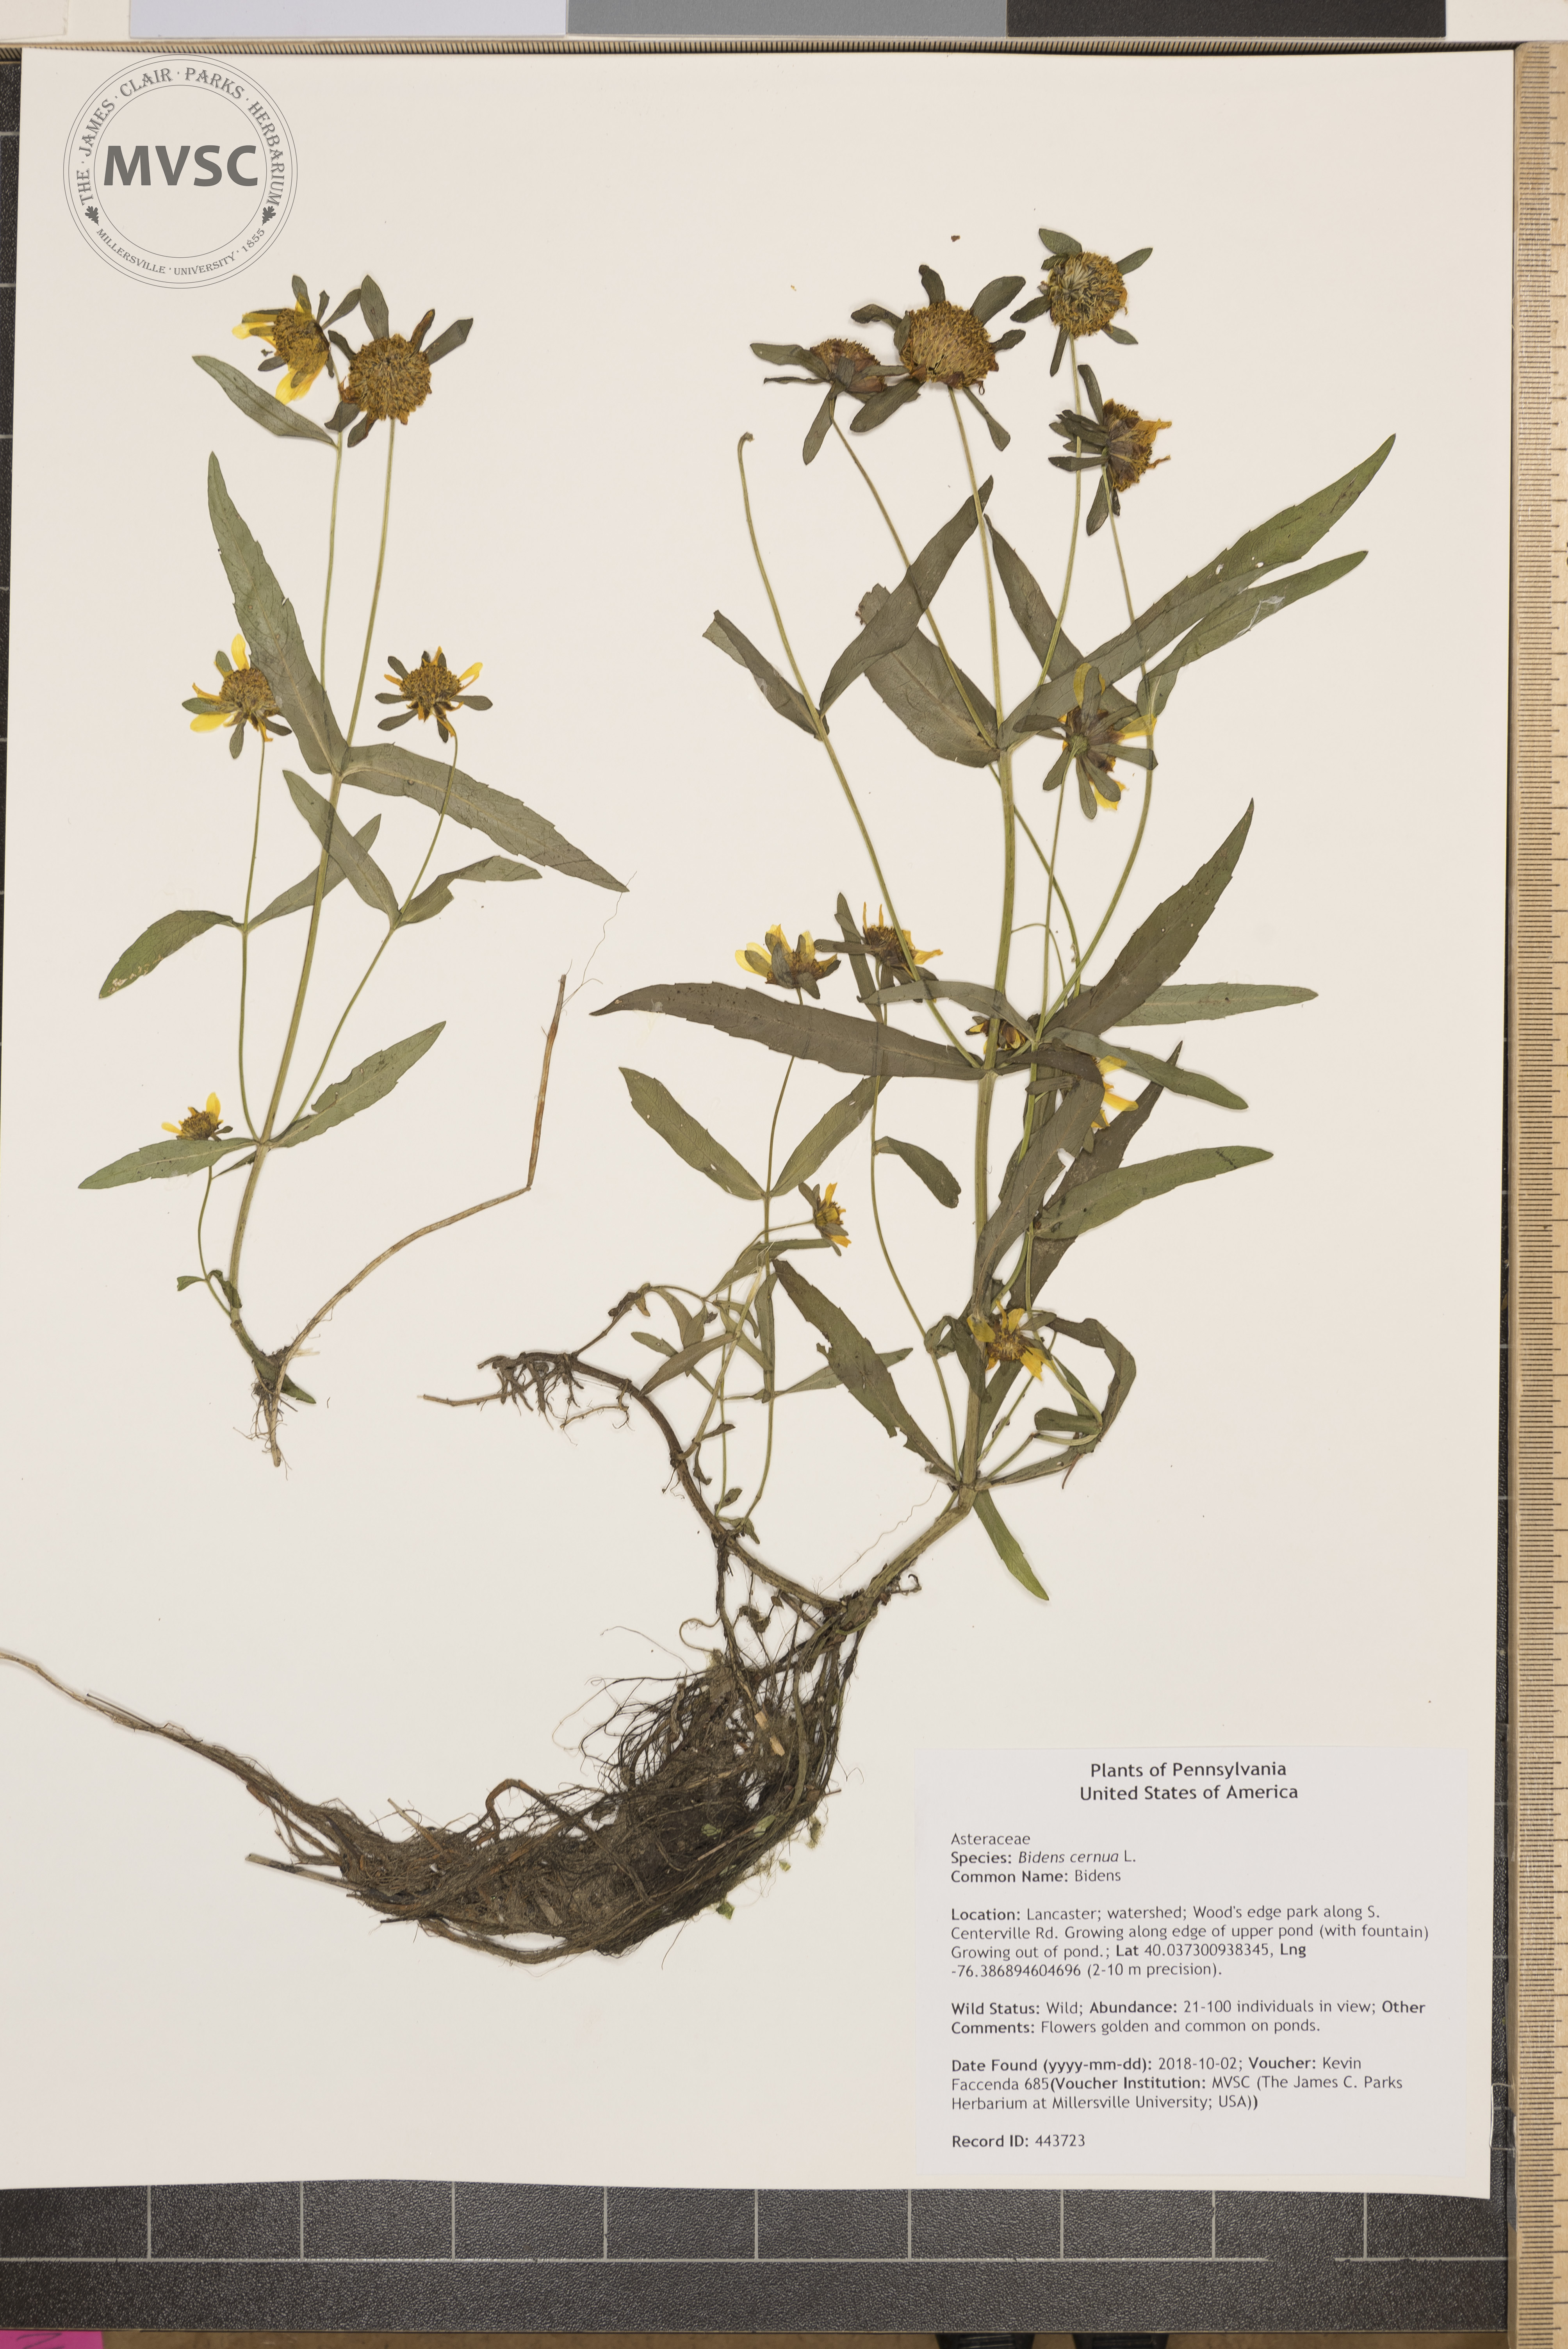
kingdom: Plantae
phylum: Tracheophyta
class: Magnoliopsida
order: Asterales
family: Asteraceae
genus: Bidens
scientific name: Bidens cernua
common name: Bidens
